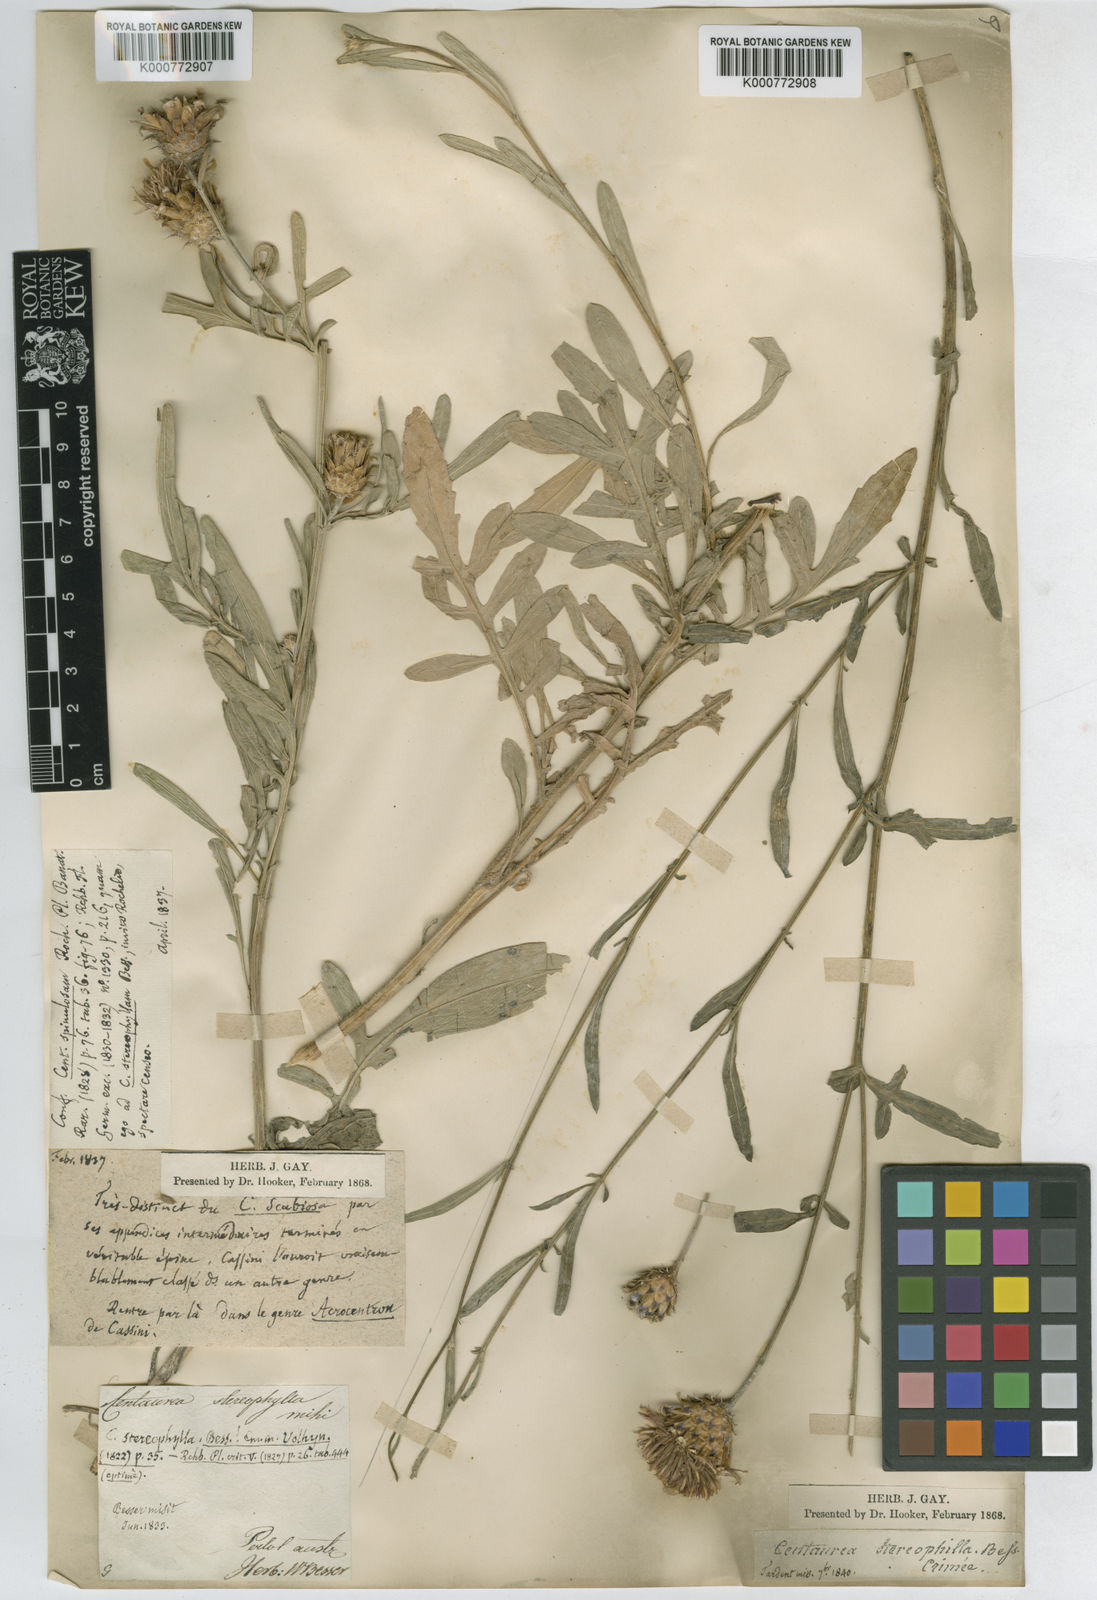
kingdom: Plantae
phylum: Tracheophyta
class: Magnoliopsida
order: Asterales
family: Asteraceae
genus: Centaurea
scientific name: Centaurea stereophylla
